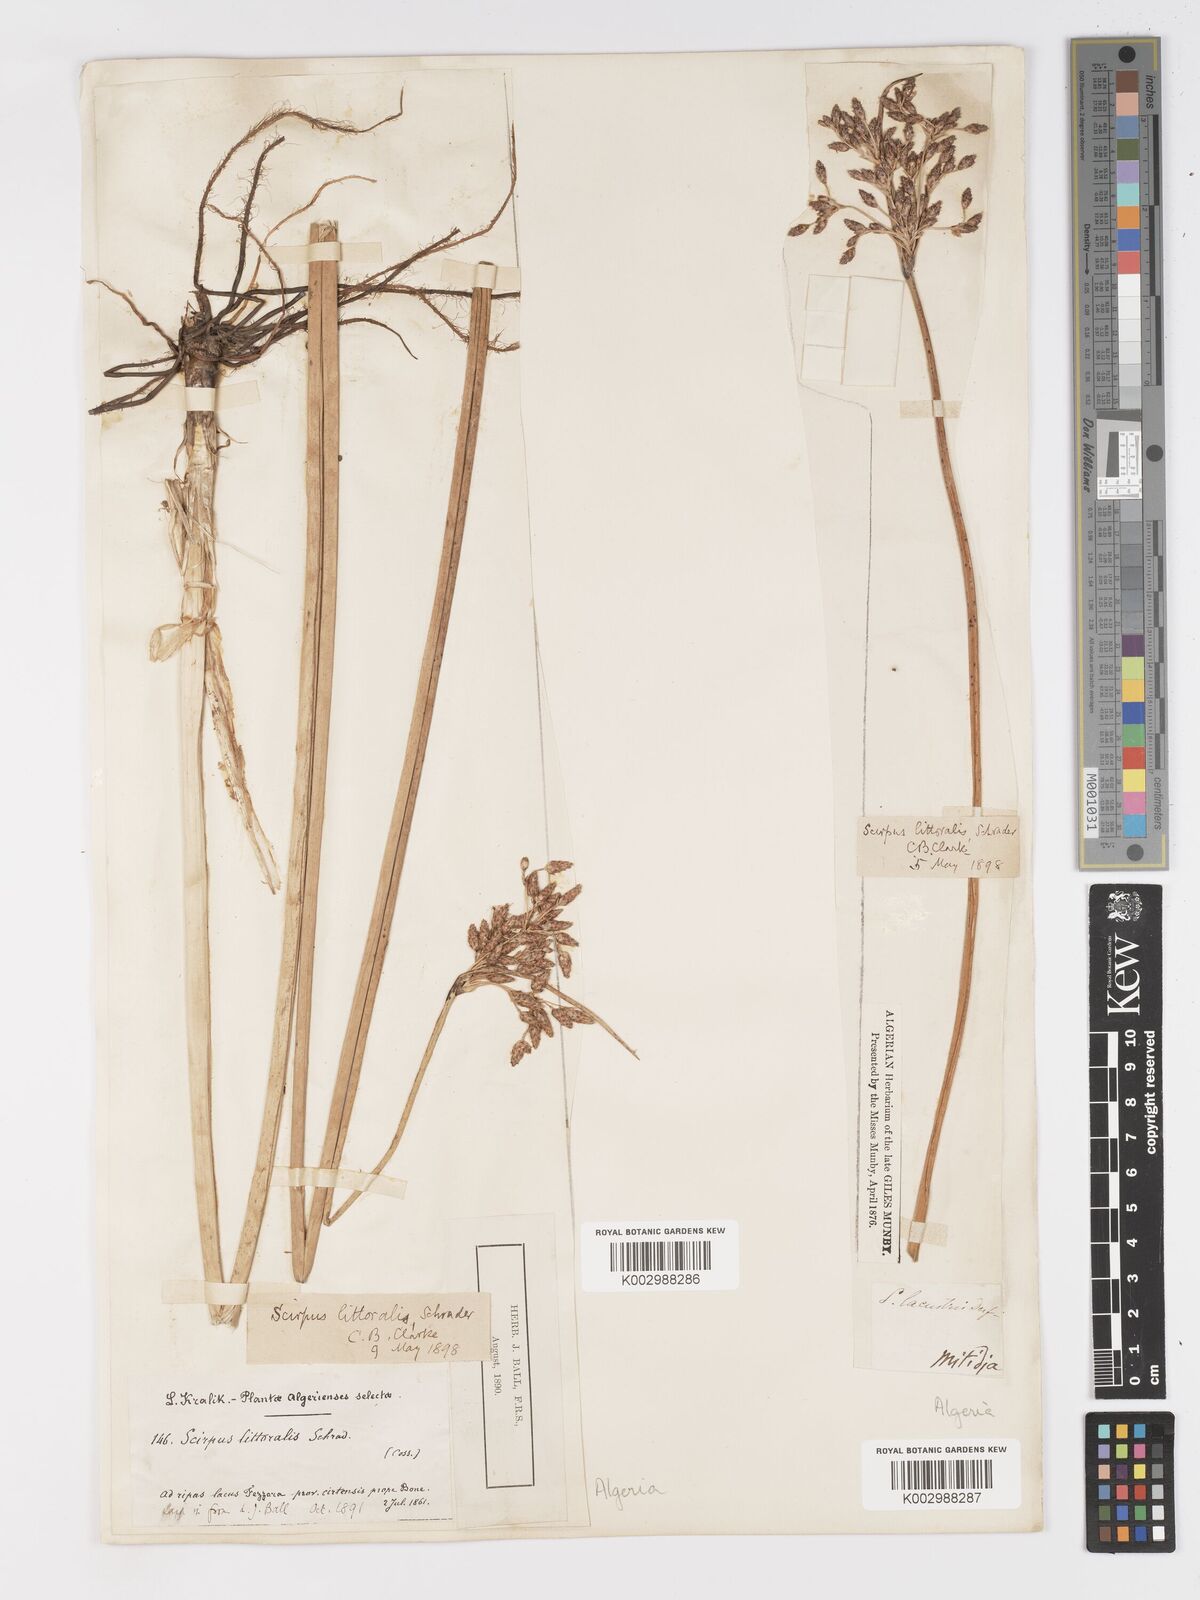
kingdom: Plantae
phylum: Tracheophyta
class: Liliopsida
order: Poales
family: Cyperaceae
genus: Schoenoplectus
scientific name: Schoenoplectus litoralis
